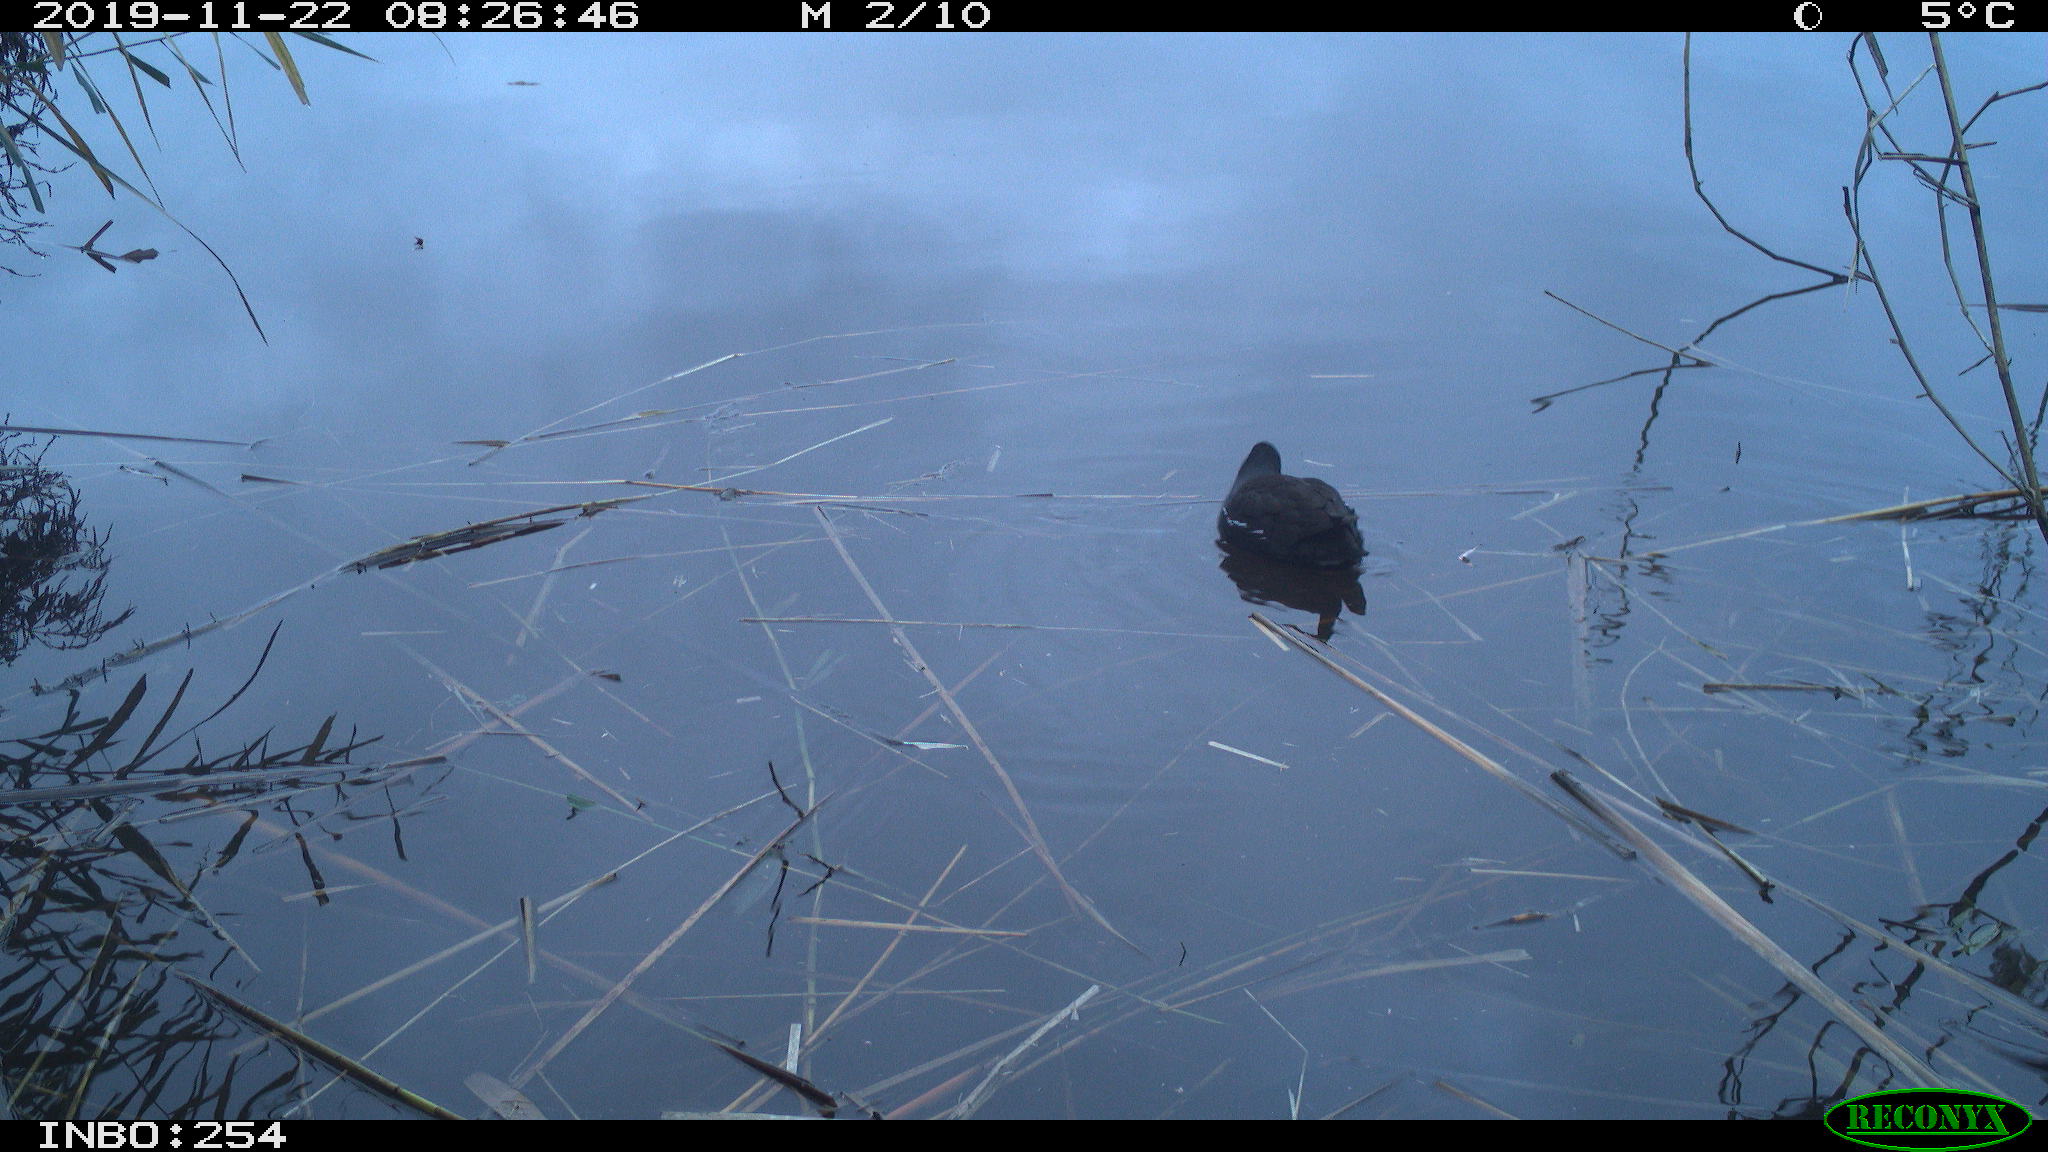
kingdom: Animalia
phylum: Chordata
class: Aves
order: Gruiformes
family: Rallidae
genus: Gallinula
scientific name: Gallinula chloropus
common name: Common moorhen
